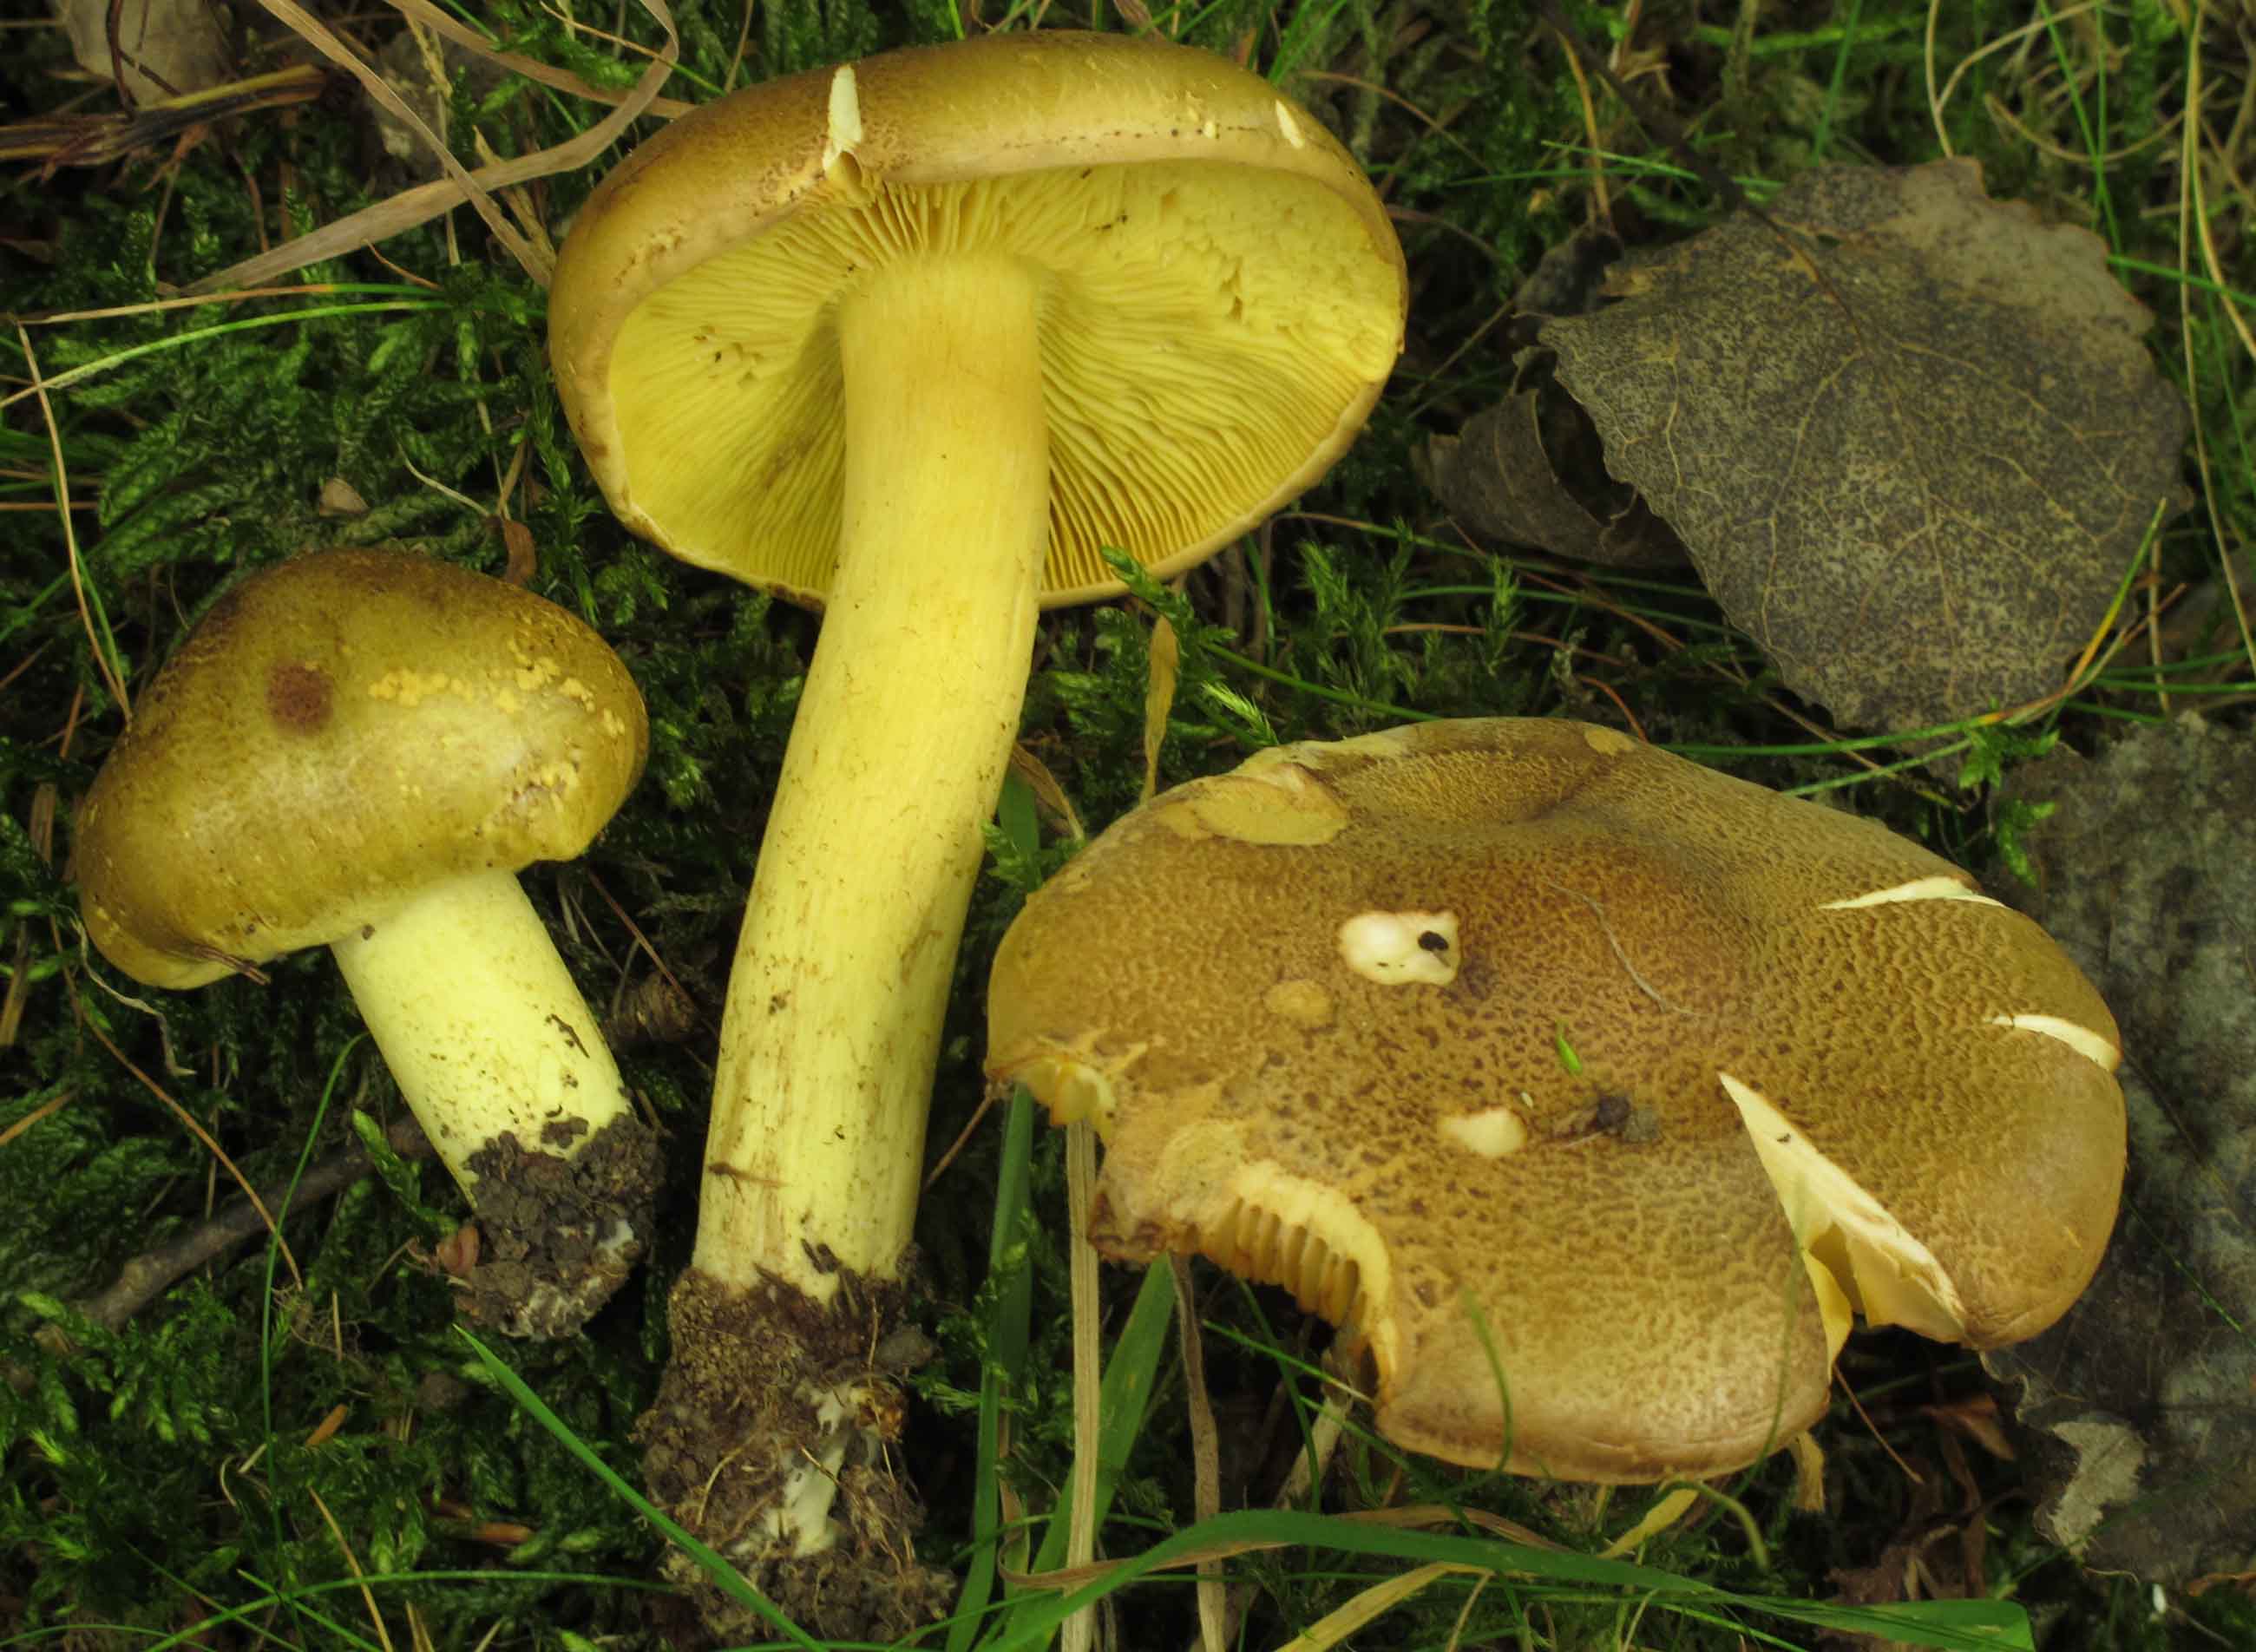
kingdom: Fungi
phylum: Basidiomycota
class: Agaricomycetes
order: Agaricales
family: Tricholomataceae
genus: Tricholoma
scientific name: Tricholoma frondosae
